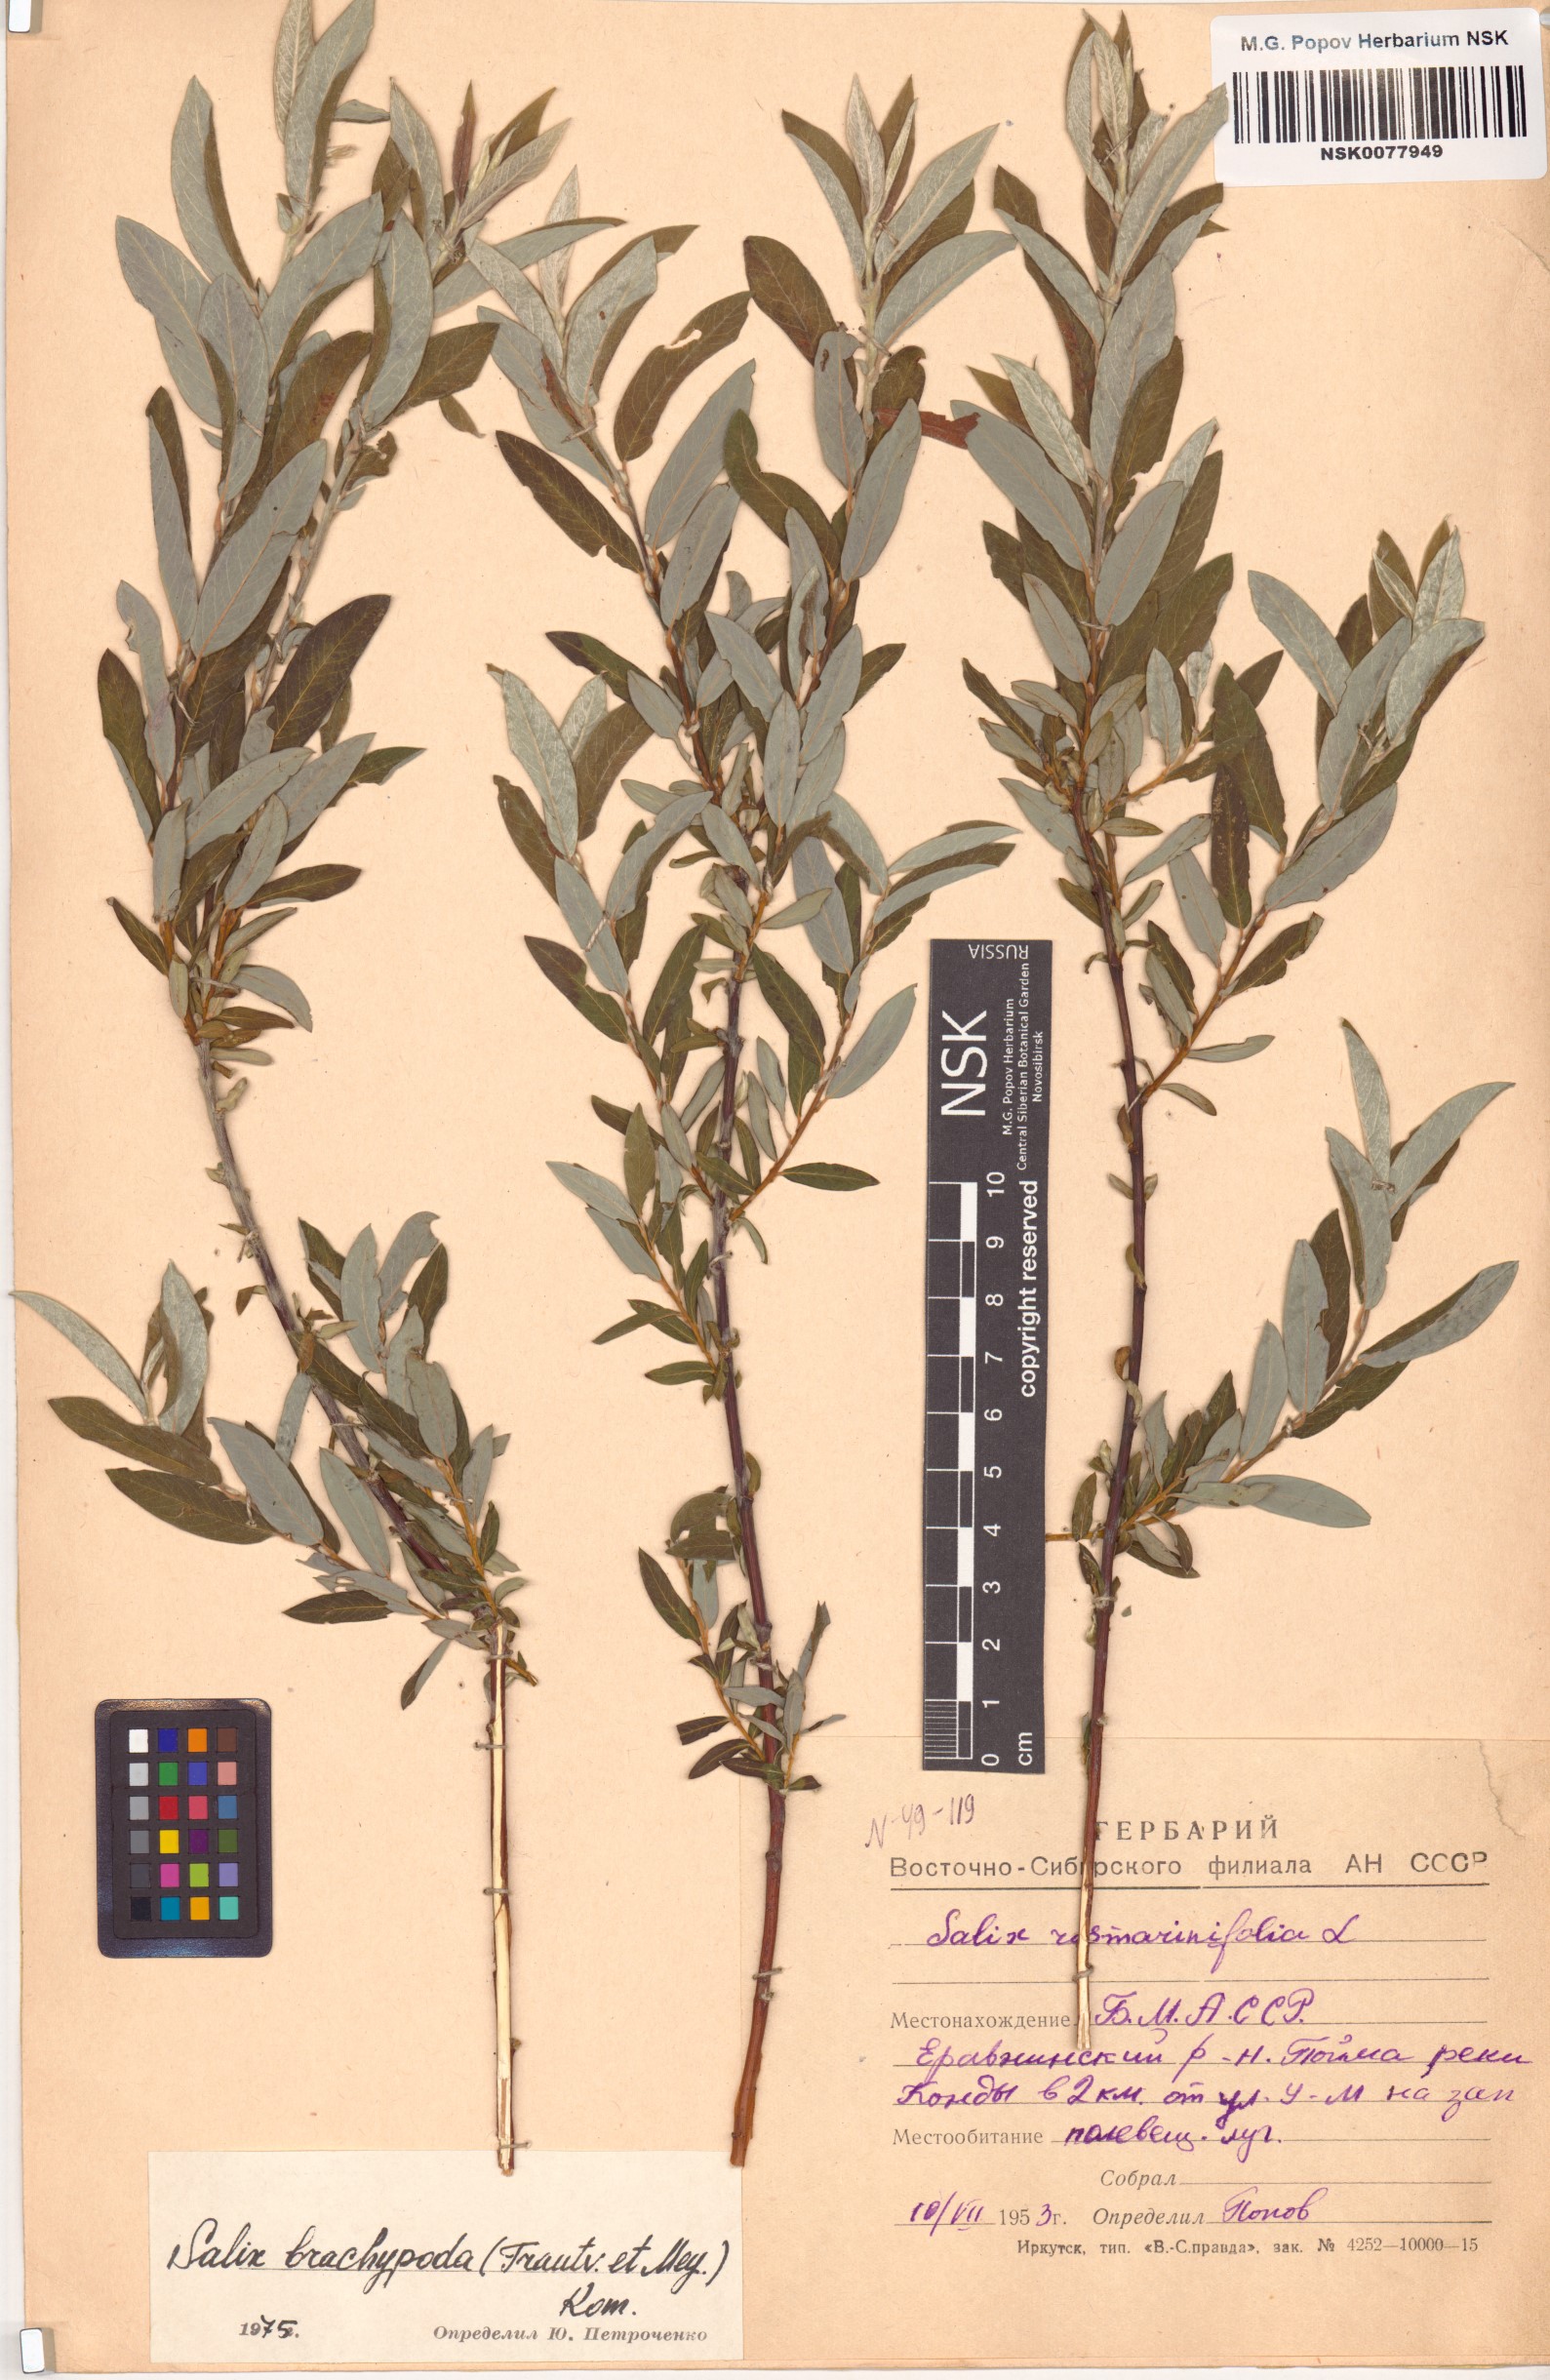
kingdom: Plantae
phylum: Tracheophyta
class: Magnoliopsida
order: Malpighiales
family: Salicaceae
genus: Salix
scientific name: Salix brachypoda
